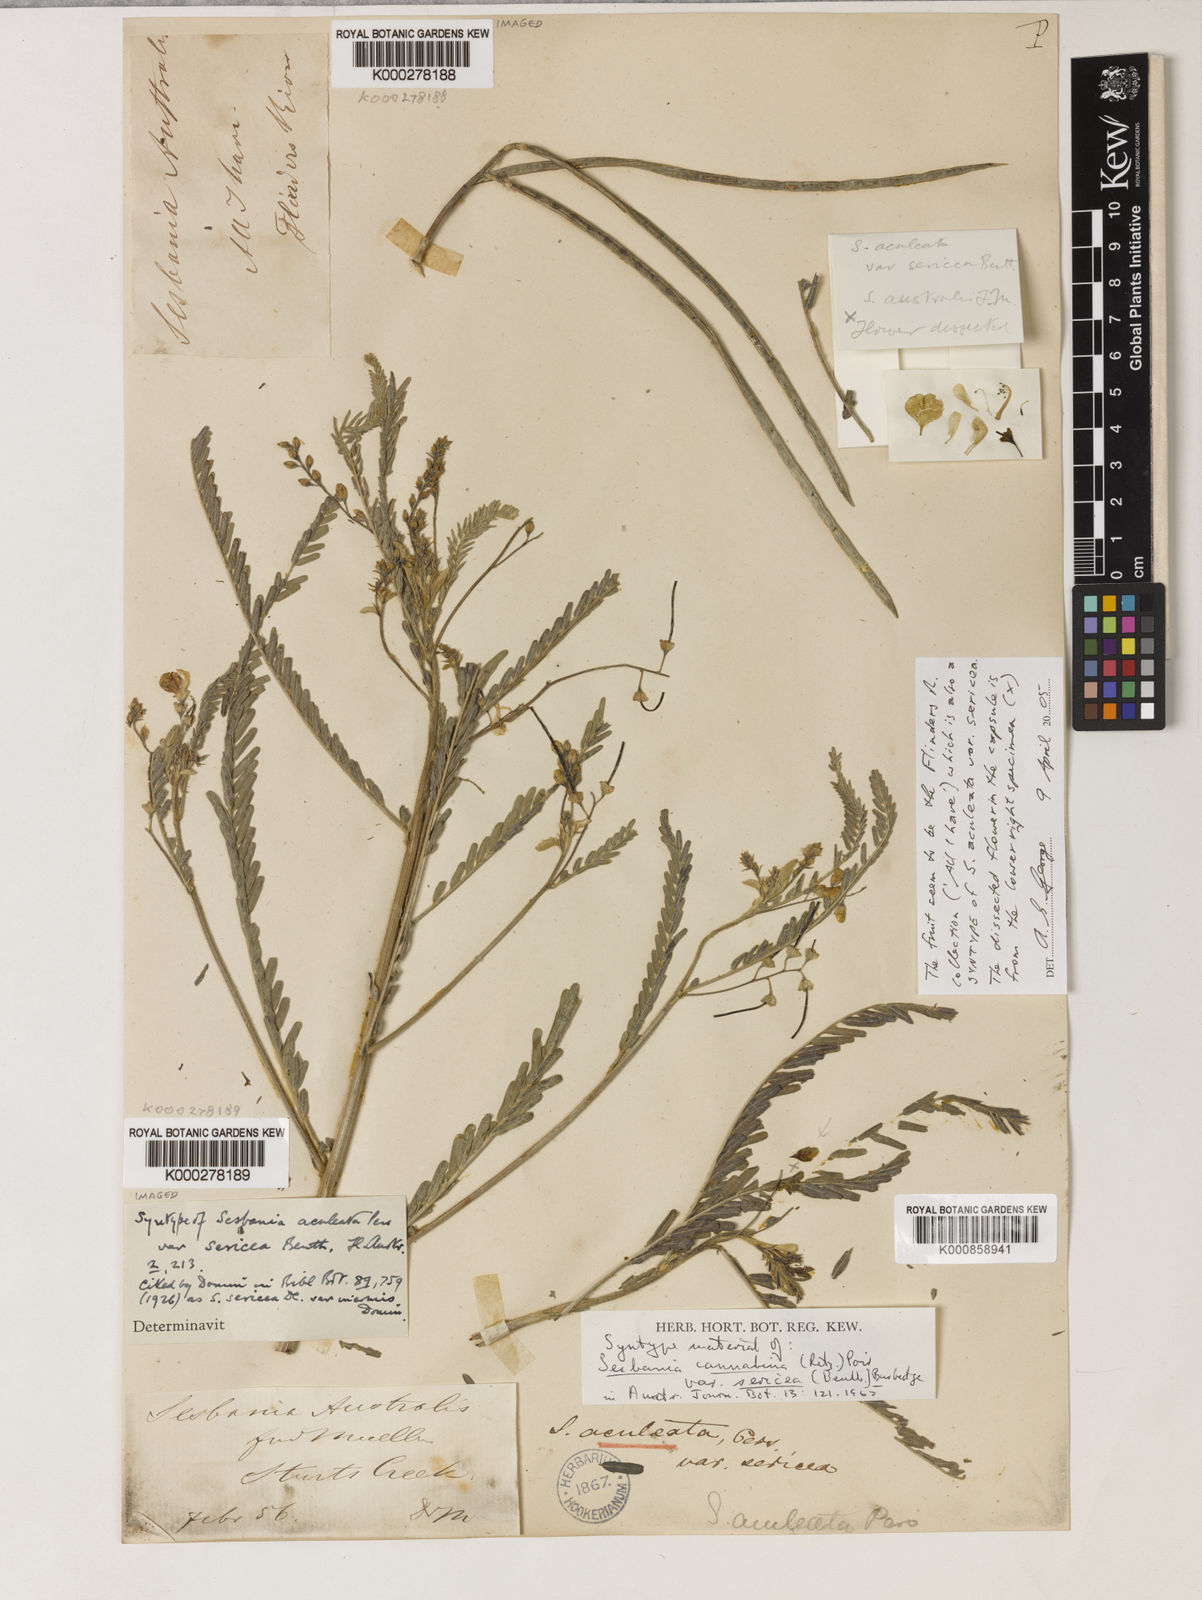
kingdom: Plantae
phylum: Tracheophyta
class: Magnoliopsida
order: Fabales
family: Fabaceae
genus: Sesbania
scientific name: Sesbania cannabina
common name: Canicha
